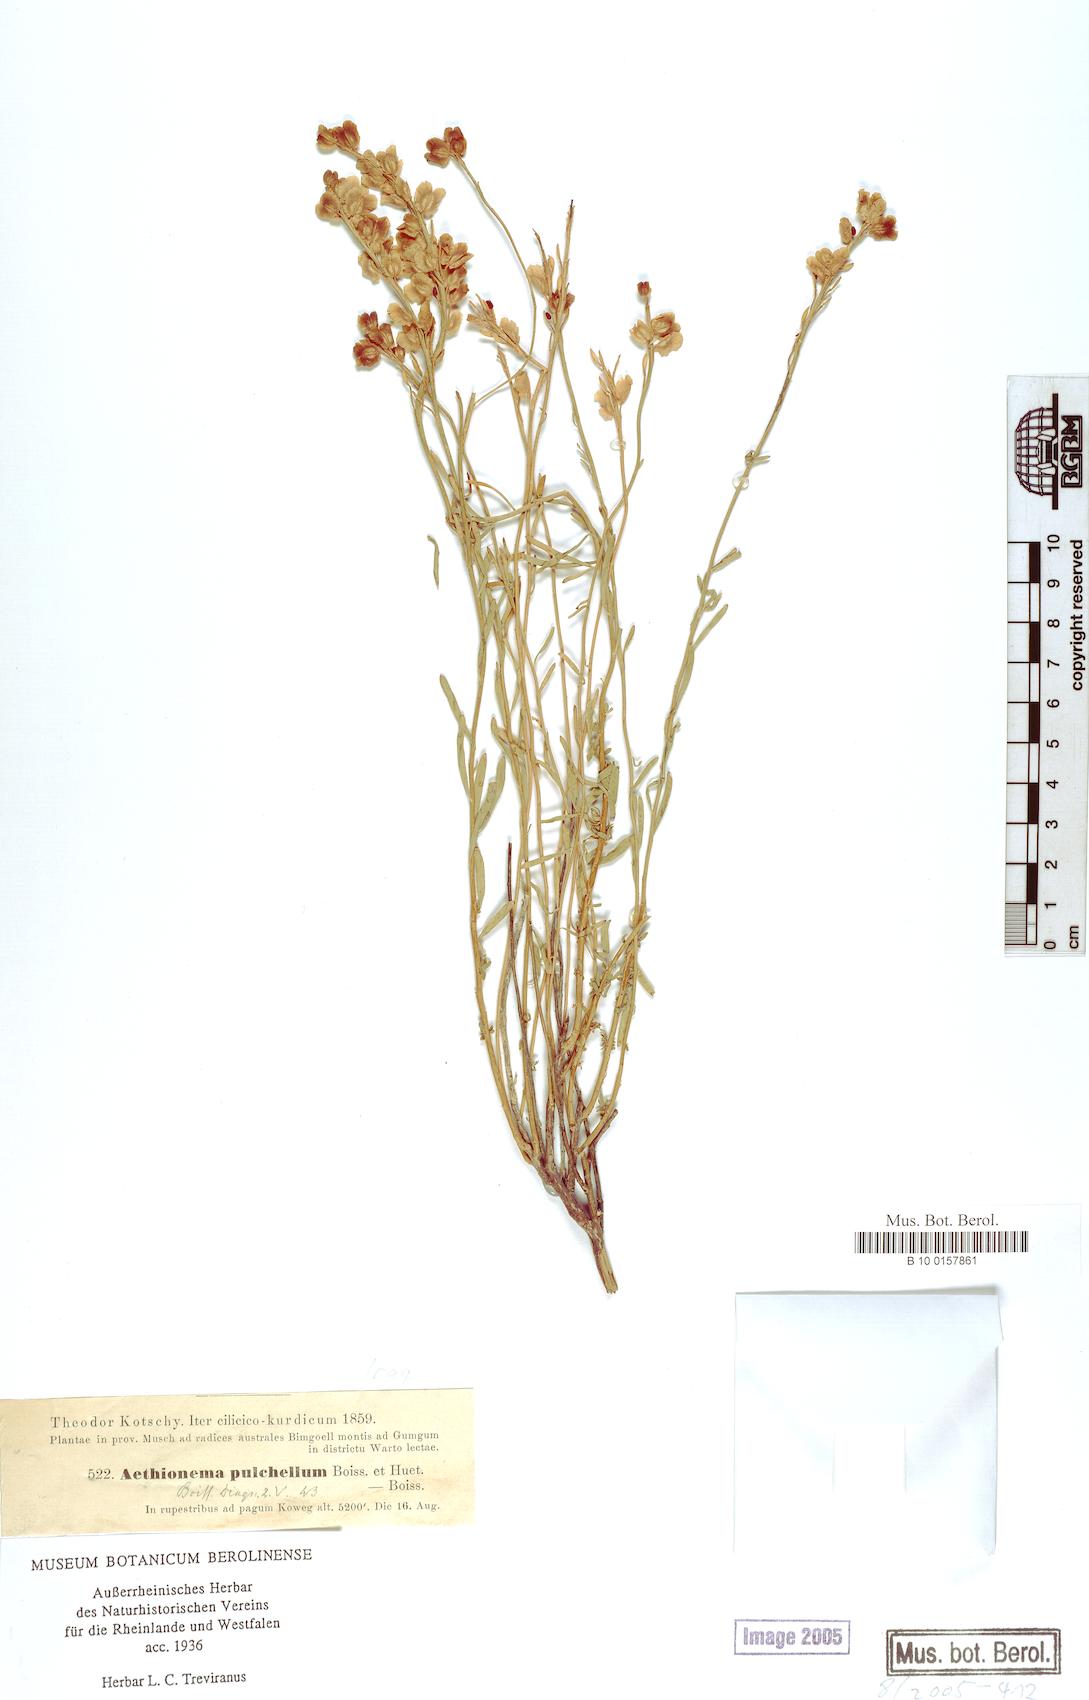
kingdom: Plantae
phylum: Tracheophyta
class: Magnoliopsida
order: Brassicales
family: Brassicaceae
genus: Aethionema
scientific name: Aethionema grandiflorum
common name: Persian stonecress
